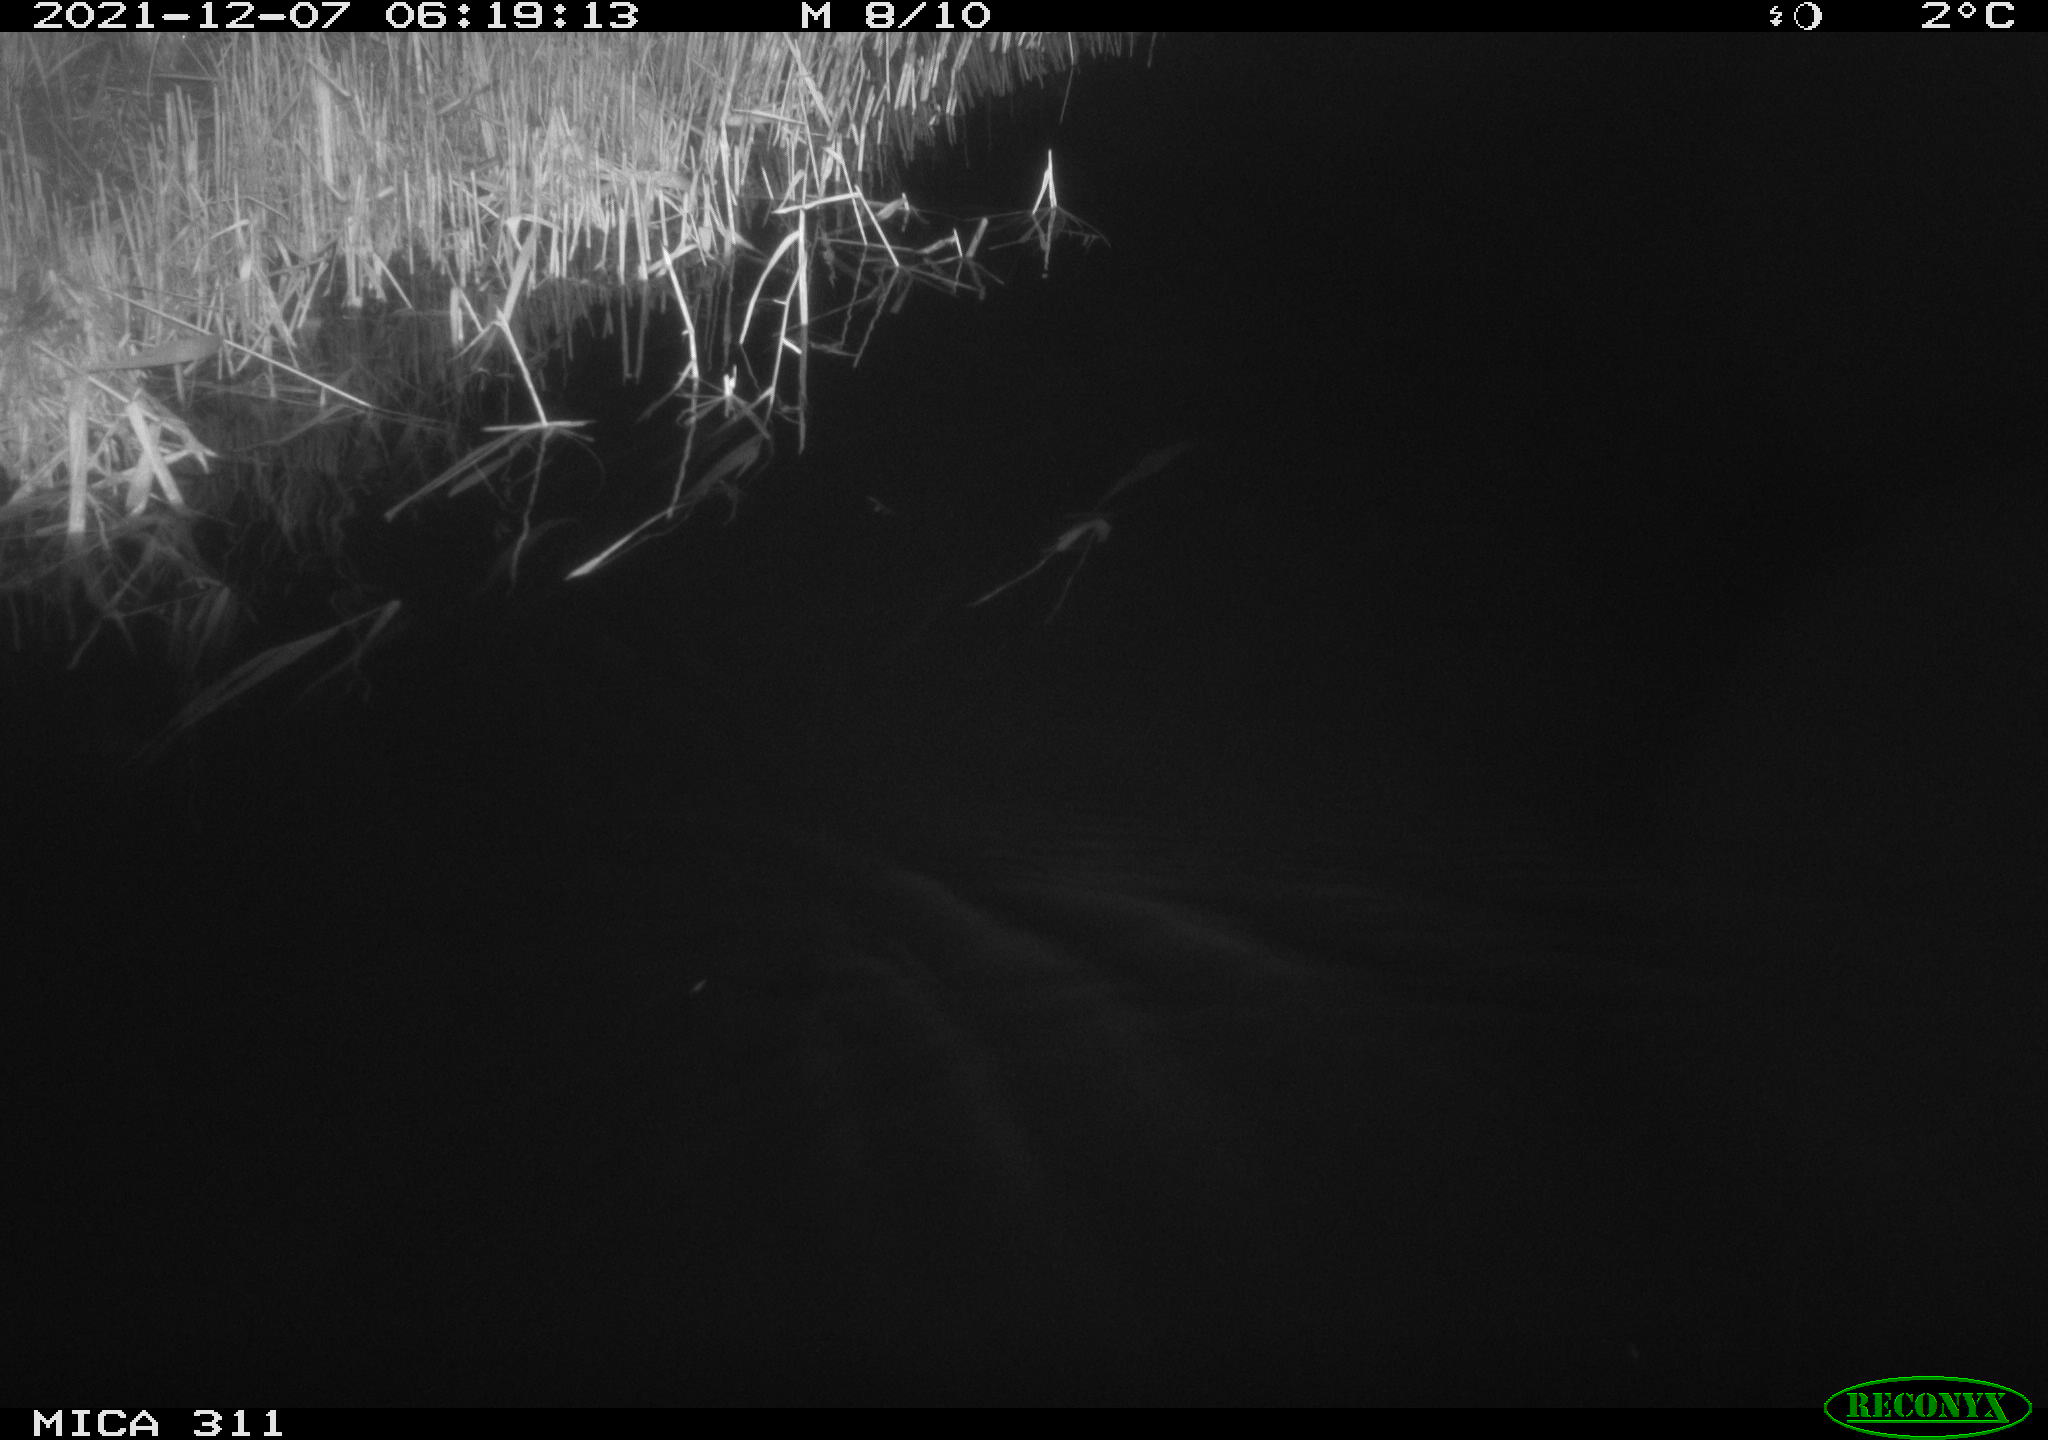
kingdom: Animalia
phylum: Chordata
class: Mammalia
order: Rodentia
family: Muridae
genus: Rattus
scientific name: Rattus norvegicus
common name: Brown rat
